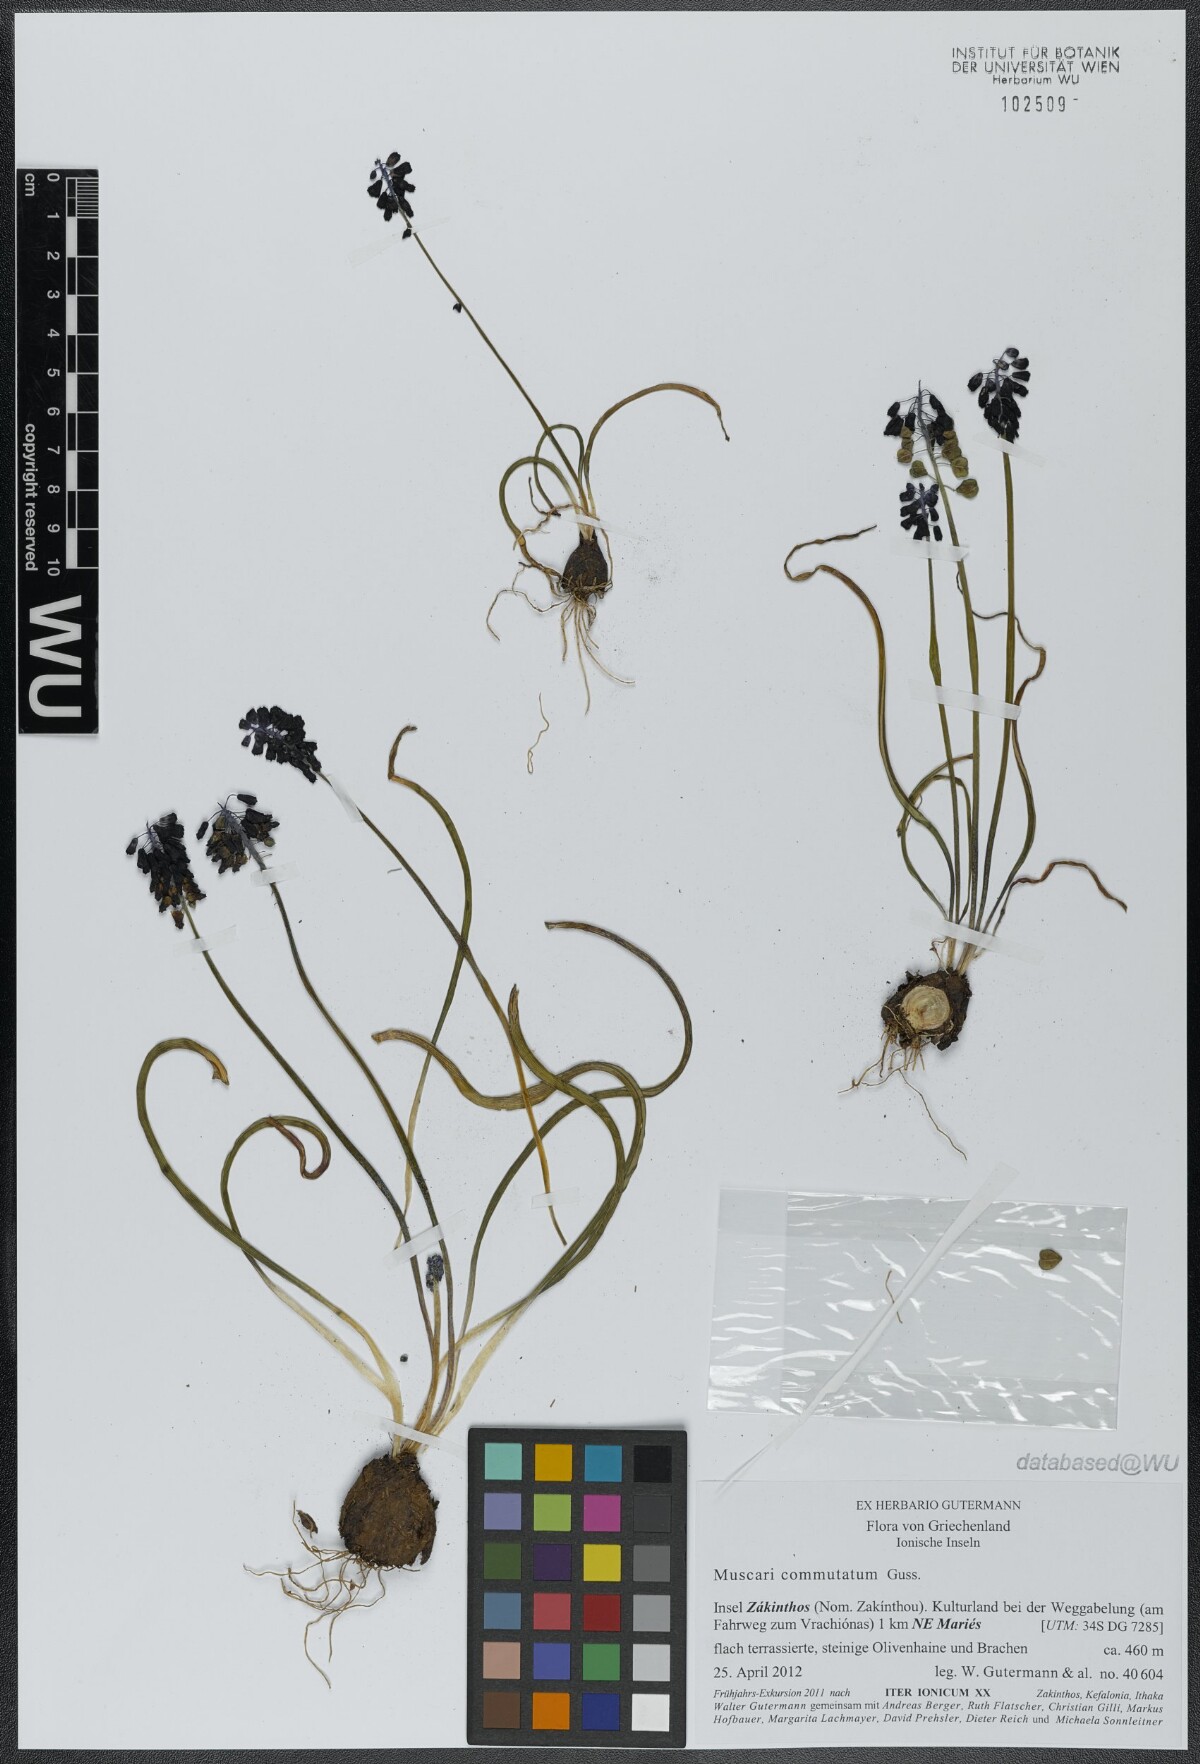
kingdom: Plantae
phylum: Tracheophyta
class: Liliopsida
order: Asparagales
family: Asparagaceae
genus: Muscari
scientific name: Muscari commutatum
